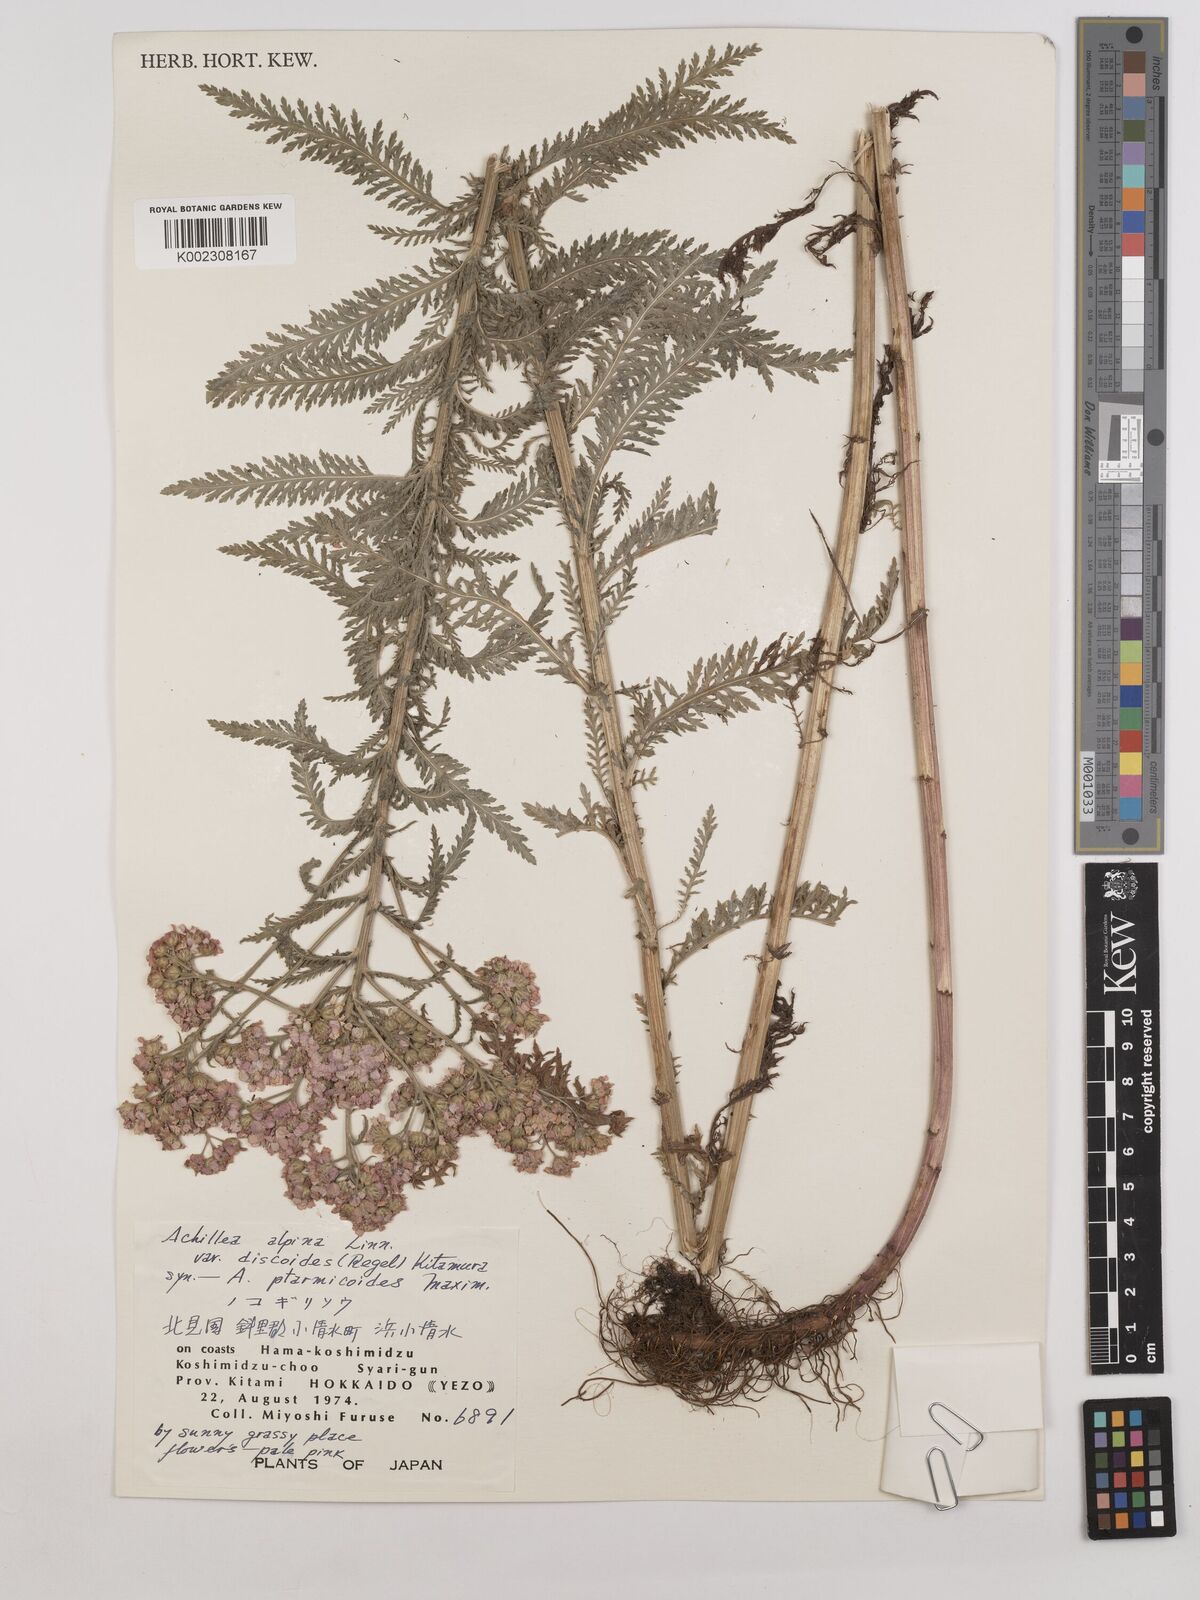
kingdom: Plantae
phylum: Tracheophyta
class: Magnoliopsida
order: Asterales
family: Asteraceae
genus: Achillea
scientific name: Achillea ptarmicoides
